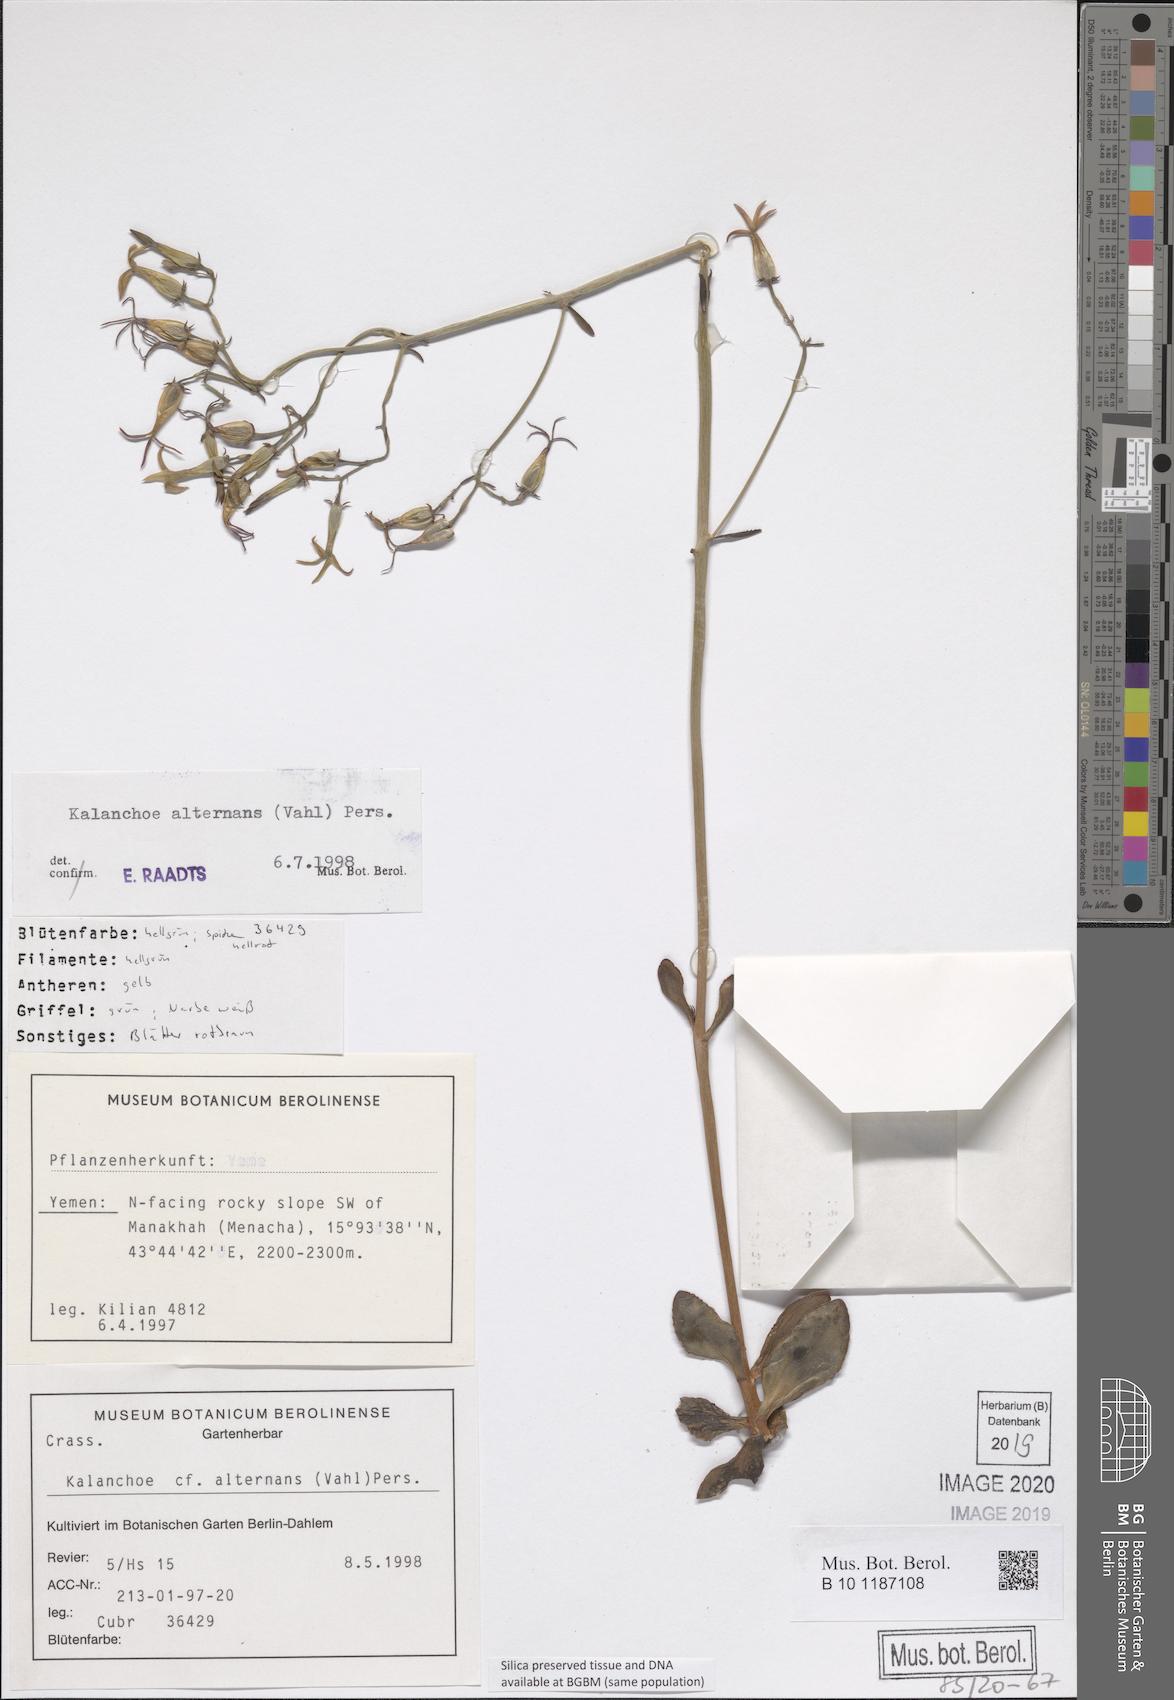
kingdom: Plantae
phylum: Tracheophyta
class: Magnoliopsida
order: Saxifragales
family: Crassulaceae
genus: Kalanchoe
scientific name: Kalanchoe alternans
